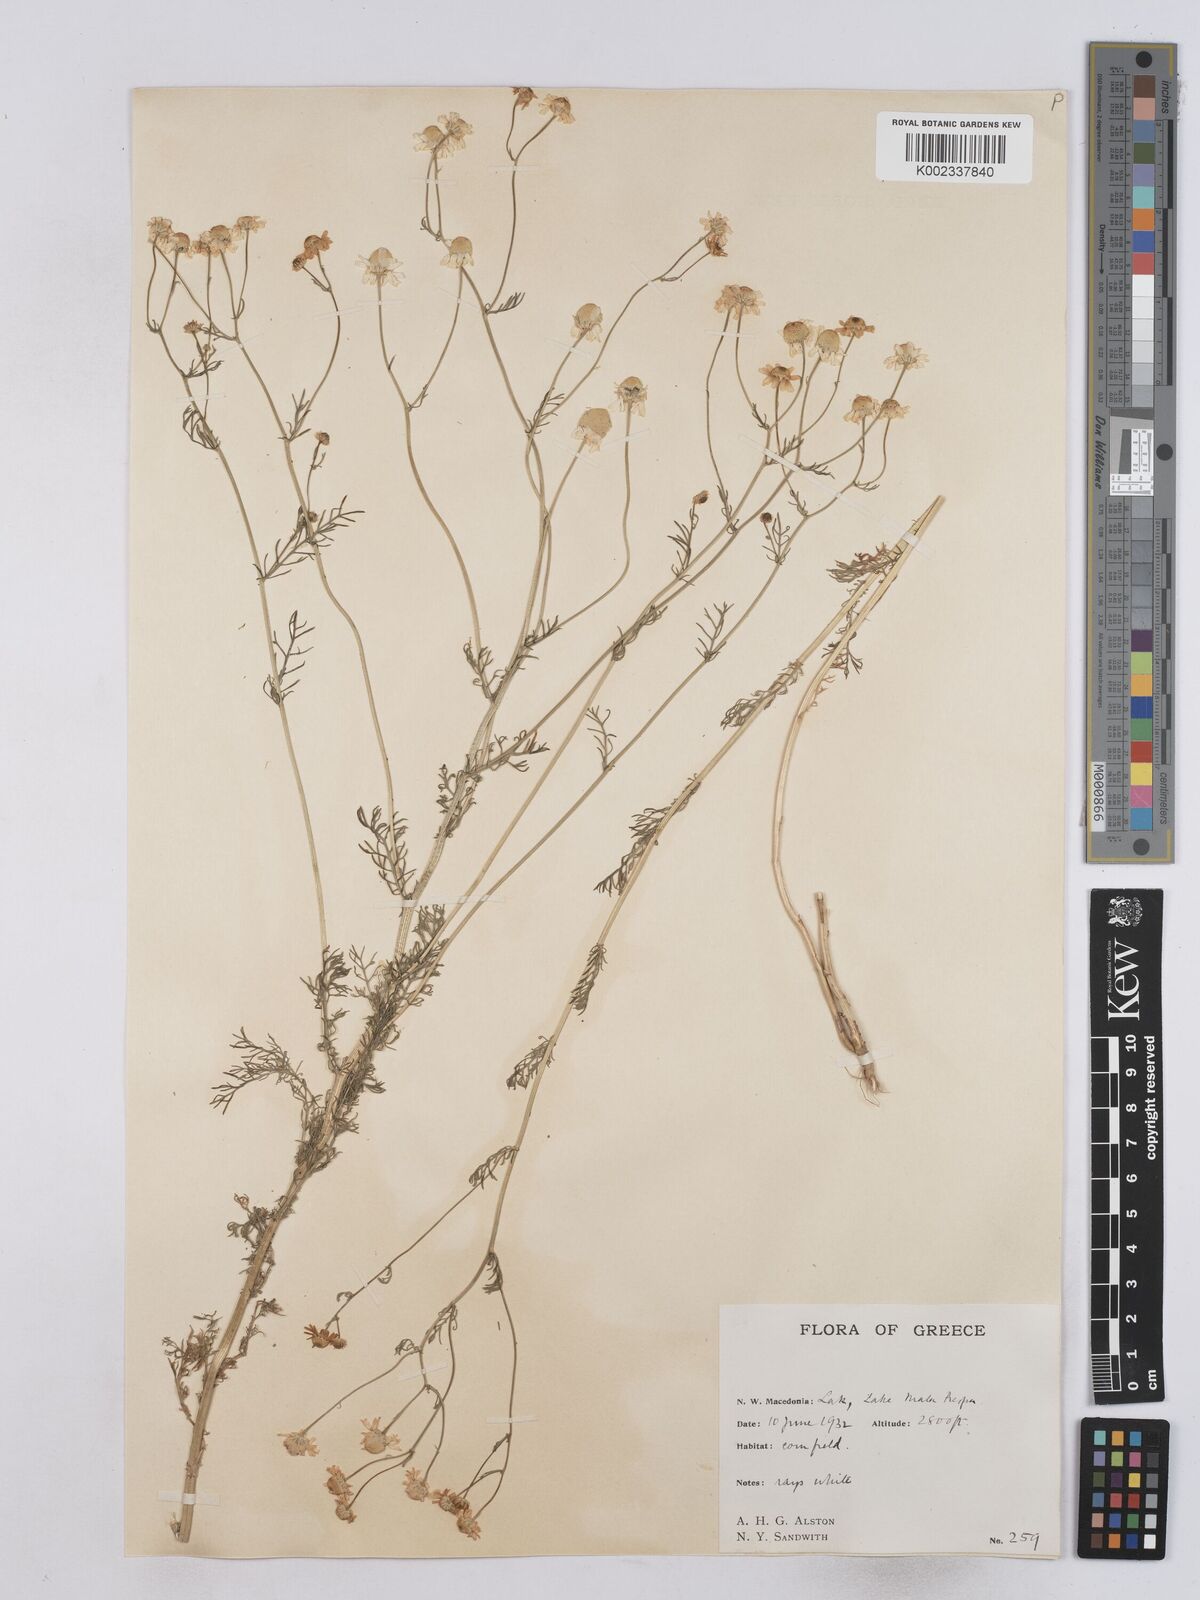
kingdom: Plantae
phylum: Tracheophyta
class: Magnoliopsida
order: Asterales
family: Asteraceae
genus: Matricaria
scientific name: Matricaria chamomilla
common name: Scented mayweed
